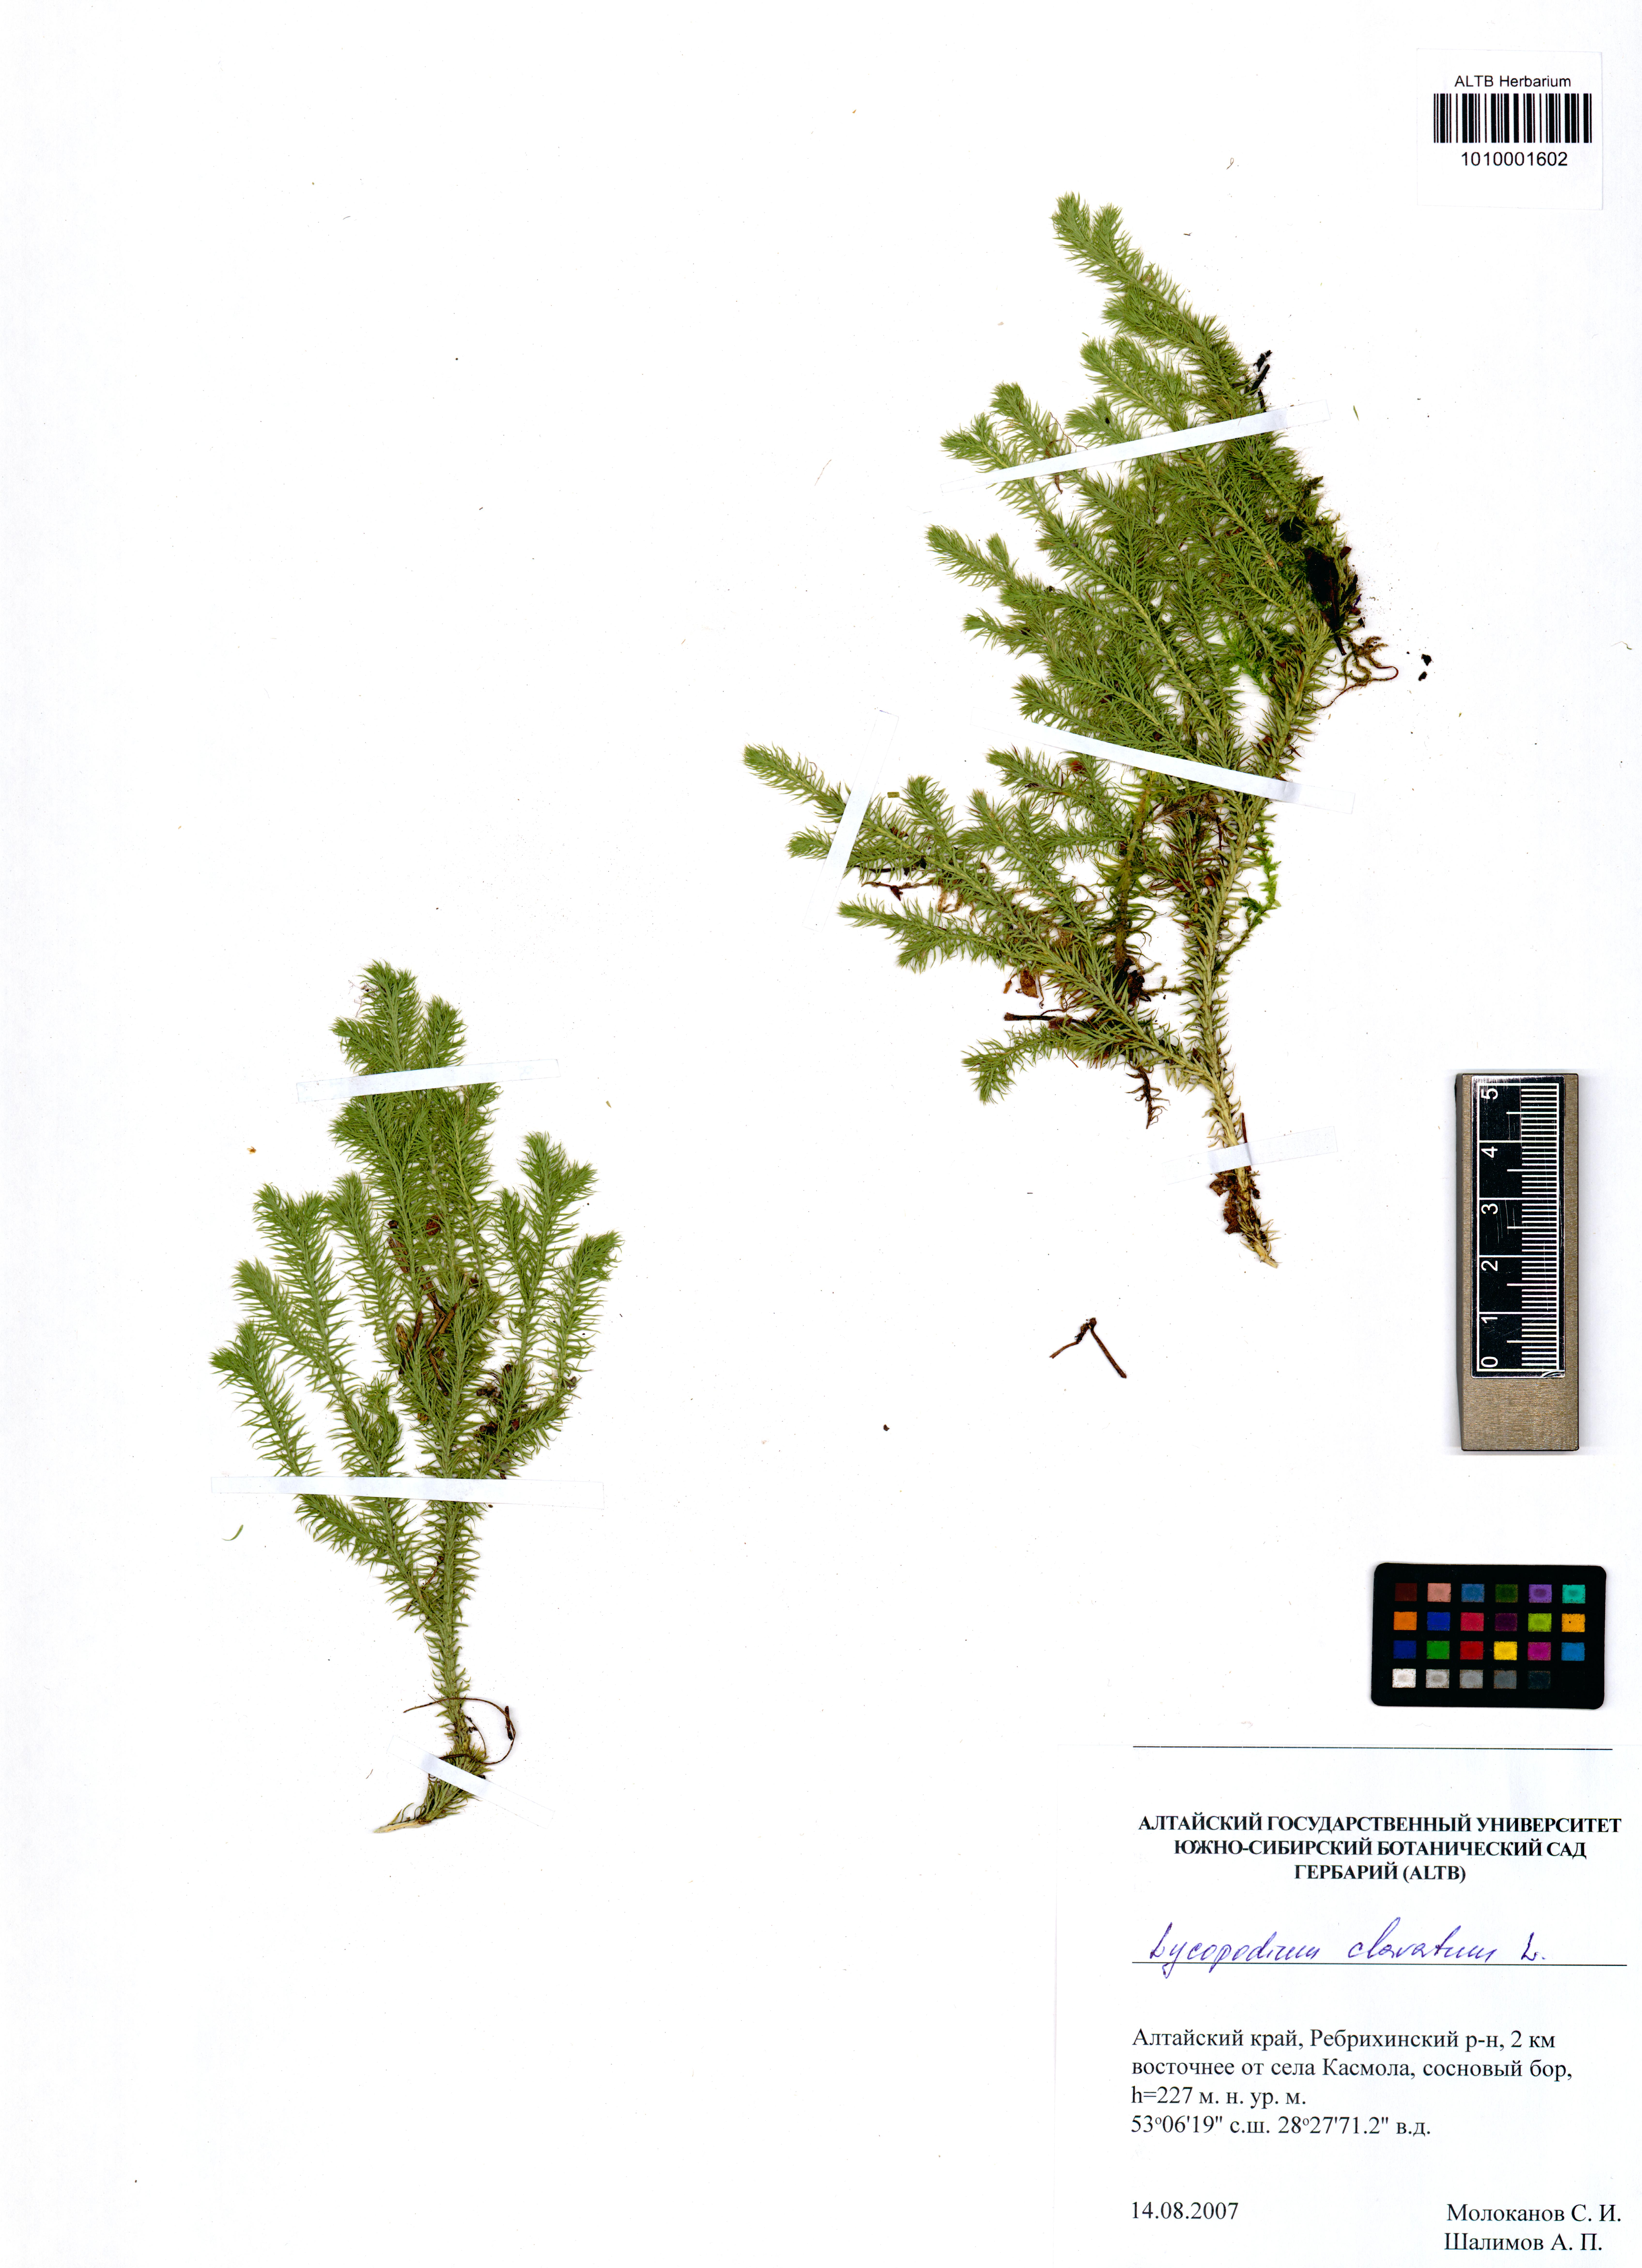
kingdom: Plantae
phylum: Tracheophyta
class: Lycopodiopsida
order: Lycopodiales
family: Lycopodiaceae
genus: Lycopodium
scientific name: Lycopodium clavatum
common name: Stag's-horn clubmoss
